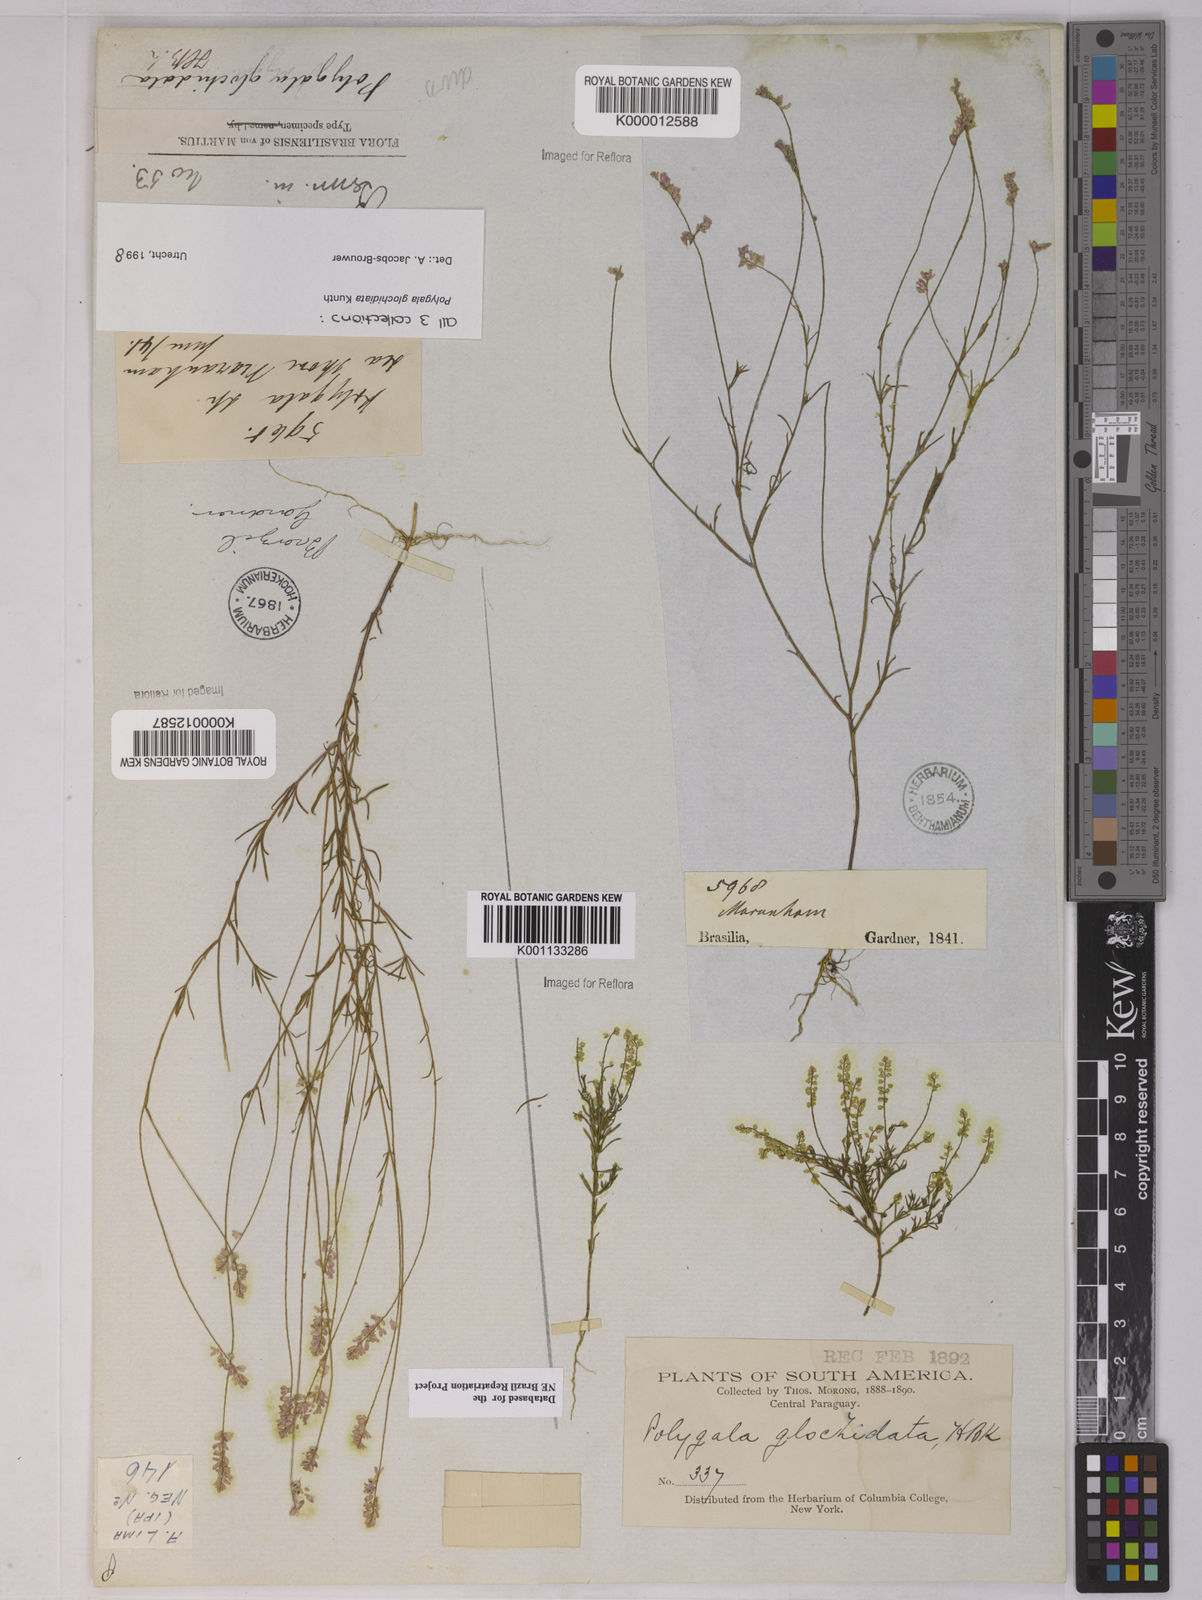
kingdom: Plantae
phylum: Tracheophyta
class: Magnoliopsida
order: Fabales
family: Polygalaceae
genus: Polygala
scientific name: Polygala glochidiata
